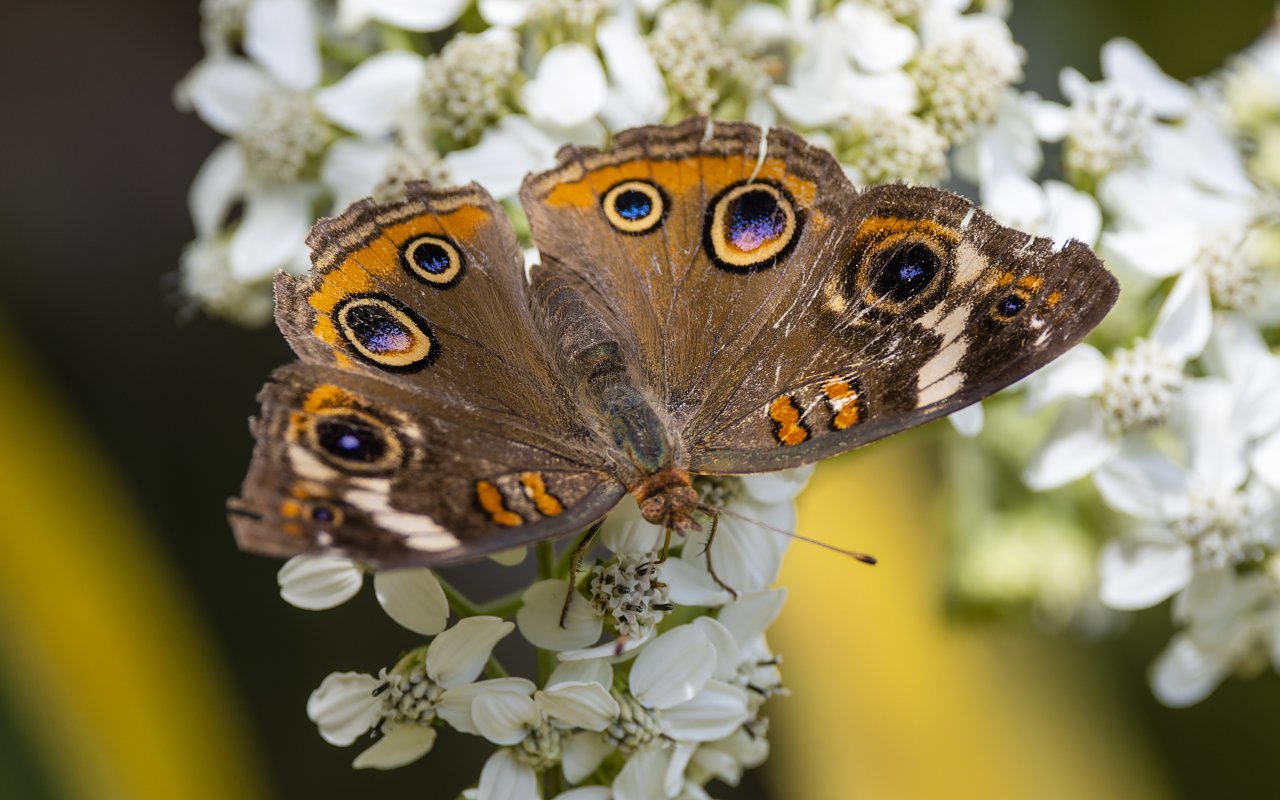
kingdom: Animalia
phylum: Arthropoda
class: Insecta
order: Lepidoptera
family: Nymphalidae
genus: Junonia
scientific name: Junonia coenia
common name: Common Buckeye
